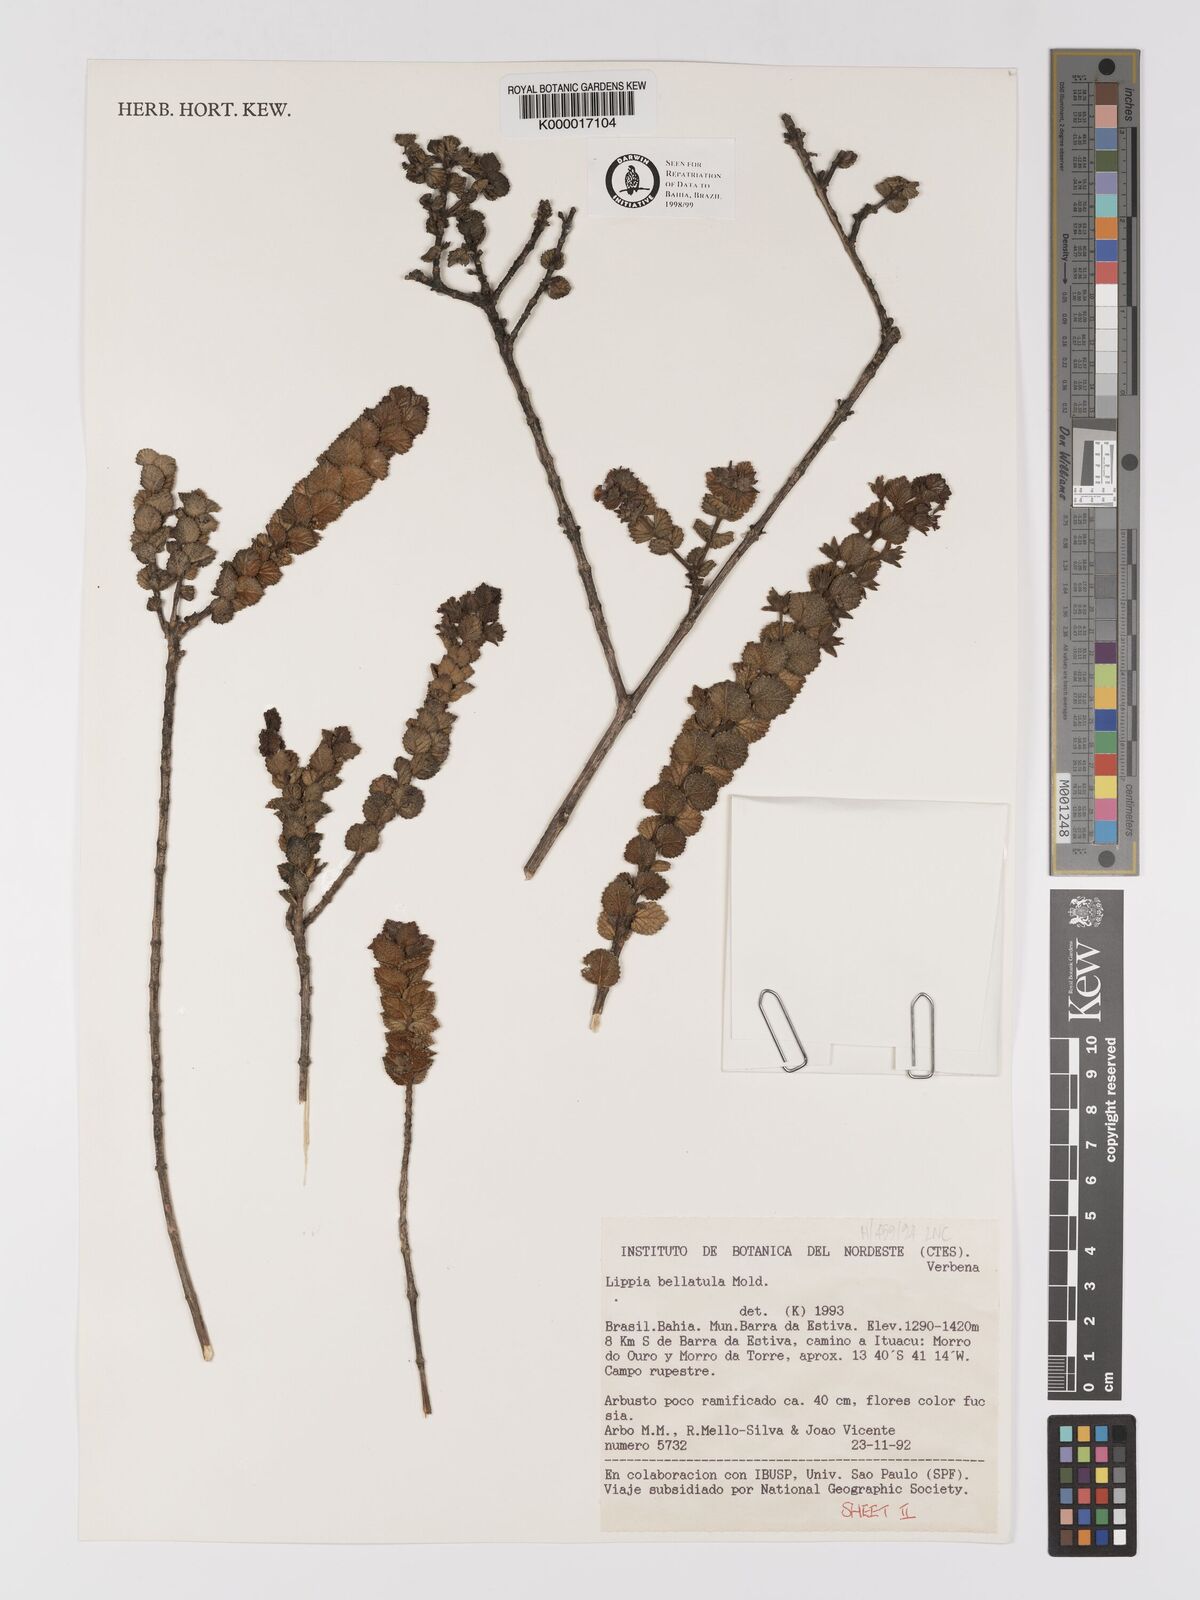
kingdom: Plantae
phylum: Tracheophyta
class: Magnoliopsida
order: Lamiales
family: Verbenaceae
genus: Lippia
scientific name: Lippia bellatula
